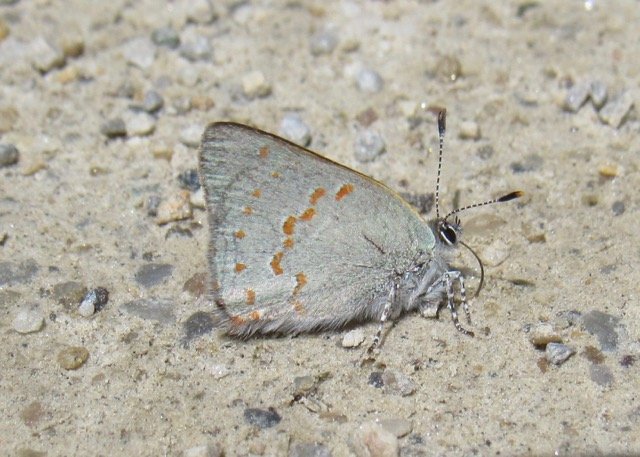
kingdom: Animalia
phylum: Arthropoda
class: Insecta
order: Lepidoptera
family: Lycaenidae
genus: Erora
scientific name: Erora laeta
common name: Early Hairstreak
